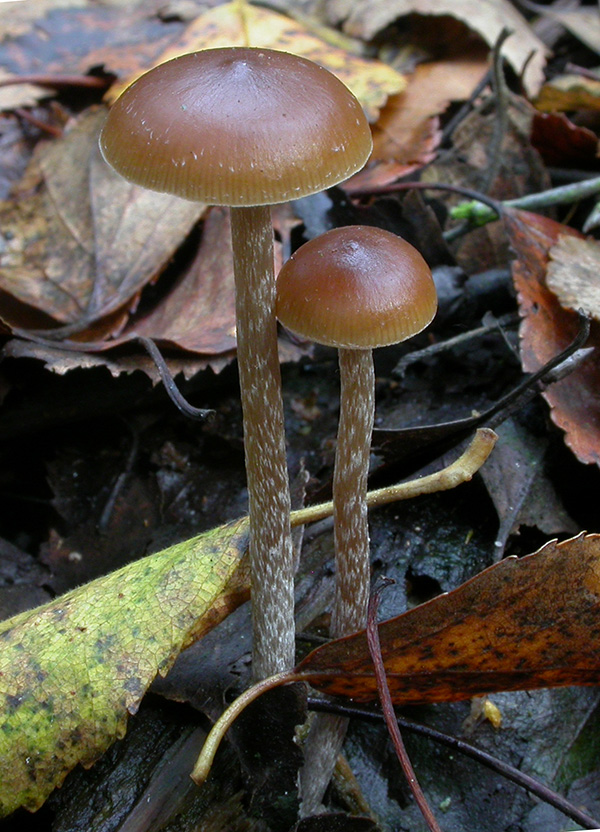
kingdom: Fungi
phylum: Basidiomycota
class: Agaricomycetes
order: Agaricales
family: Hymenogastraceae
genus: Psilocybe
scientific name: Psilocybe fuscofulva
